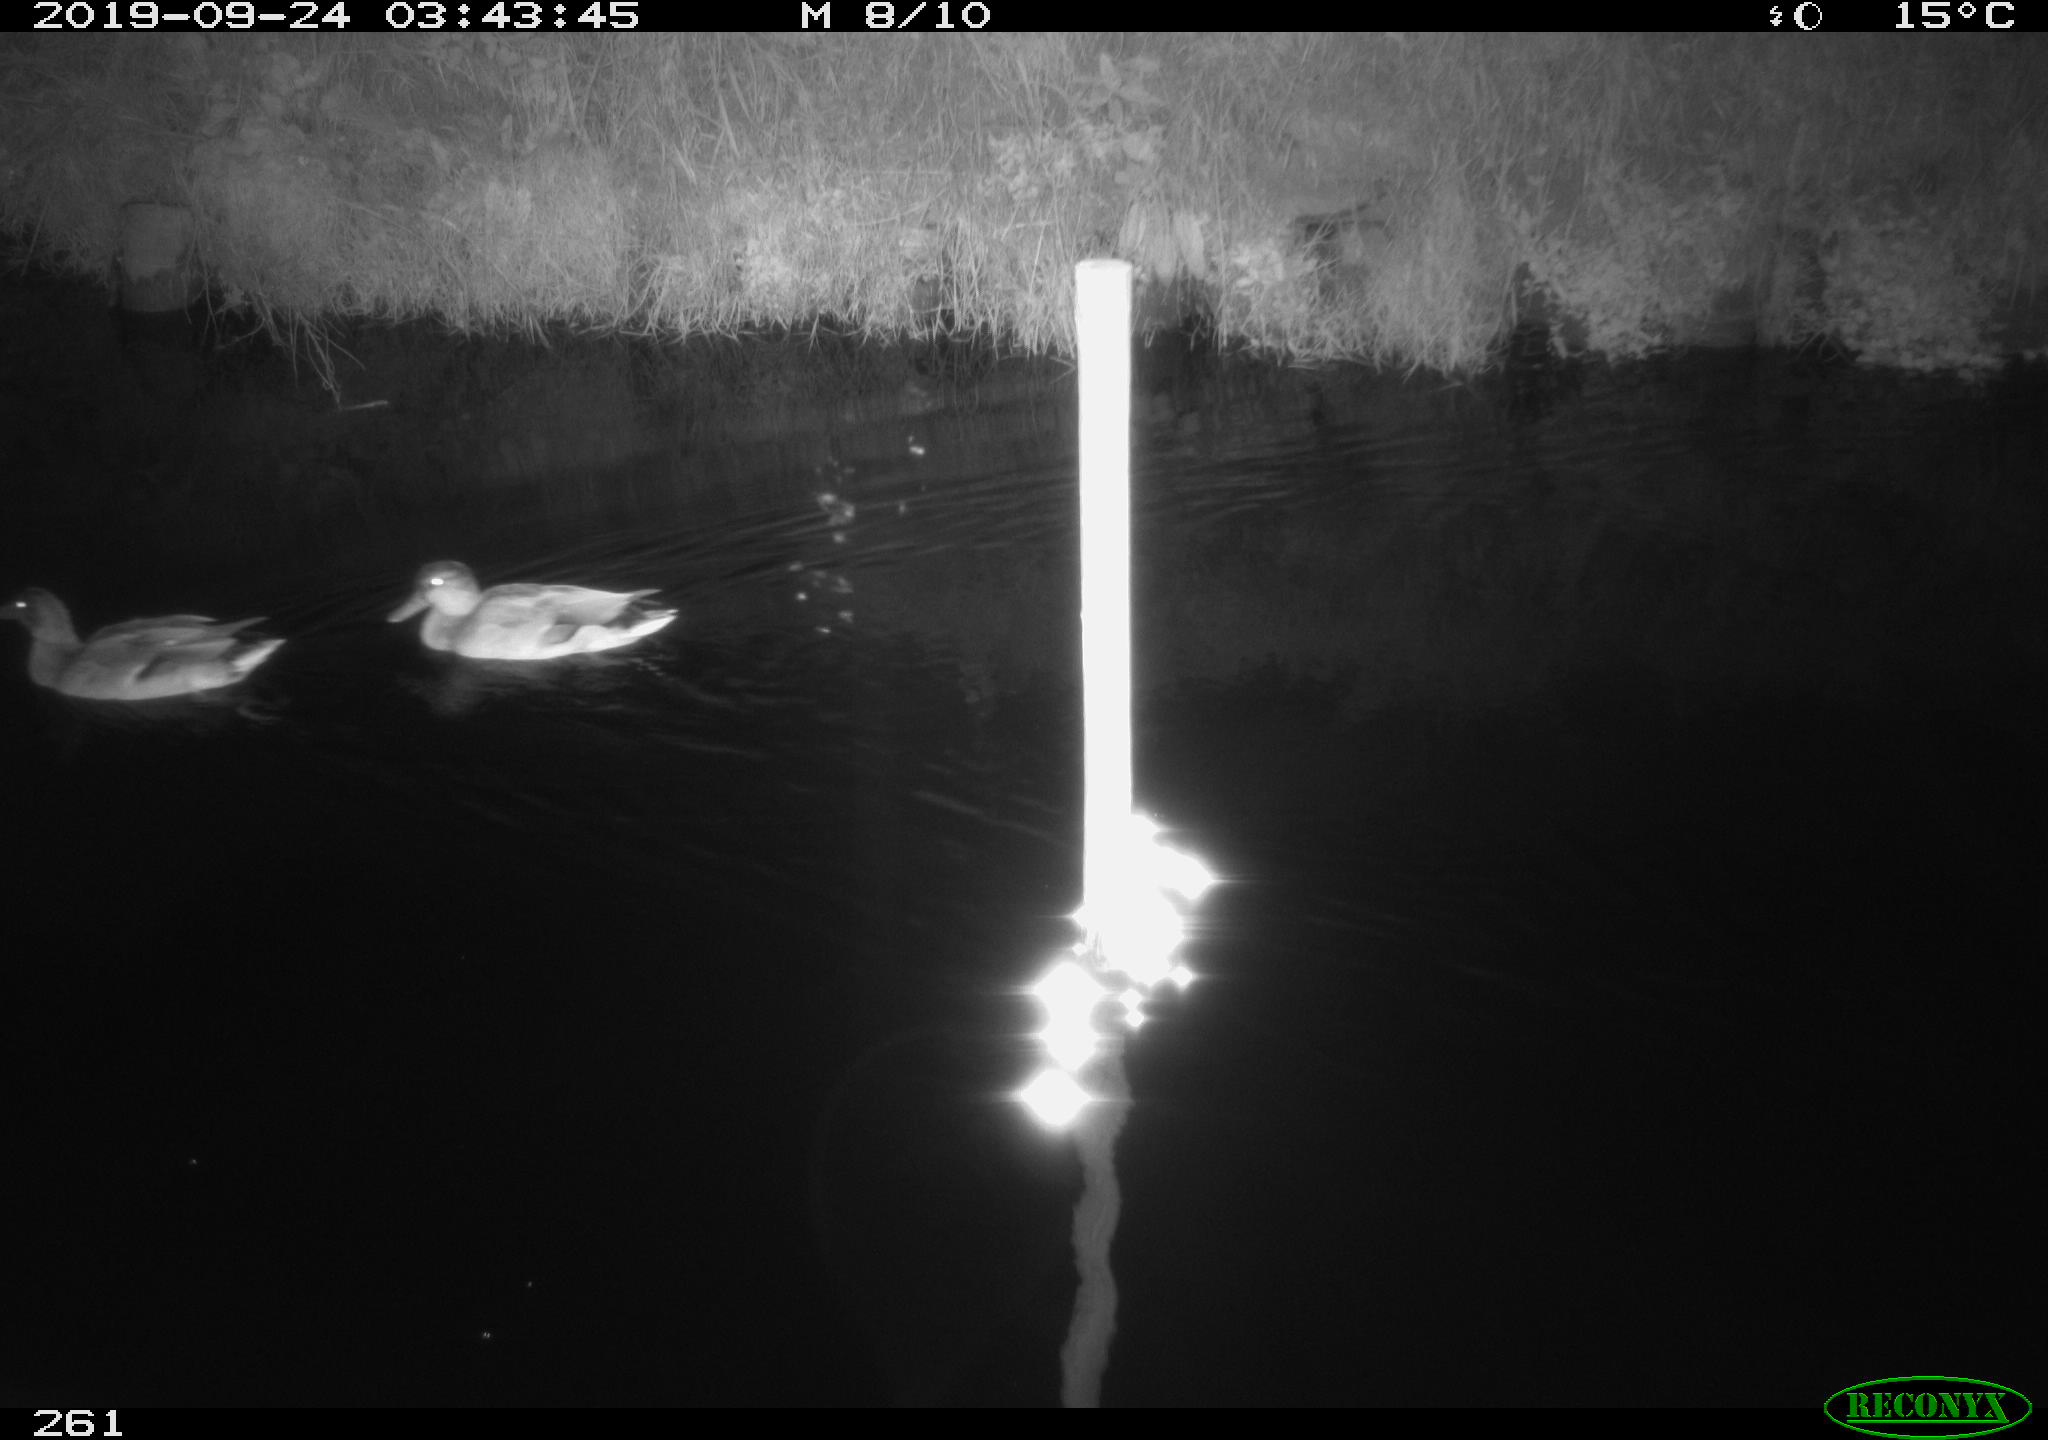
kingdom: Animalia
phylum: Chordata
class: Aves
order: Anseriformes
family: Anatidae
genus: Anas
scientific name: Anas platyrhynchos
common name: Mallard
